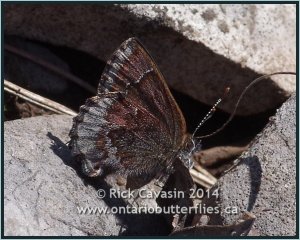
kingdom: Animalia
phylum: Arthropoda
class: Insecta
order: Lepidoptera
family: Lycaenidae
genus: Callophrys
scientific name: Callophrys polios
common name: Hoary Elfin
